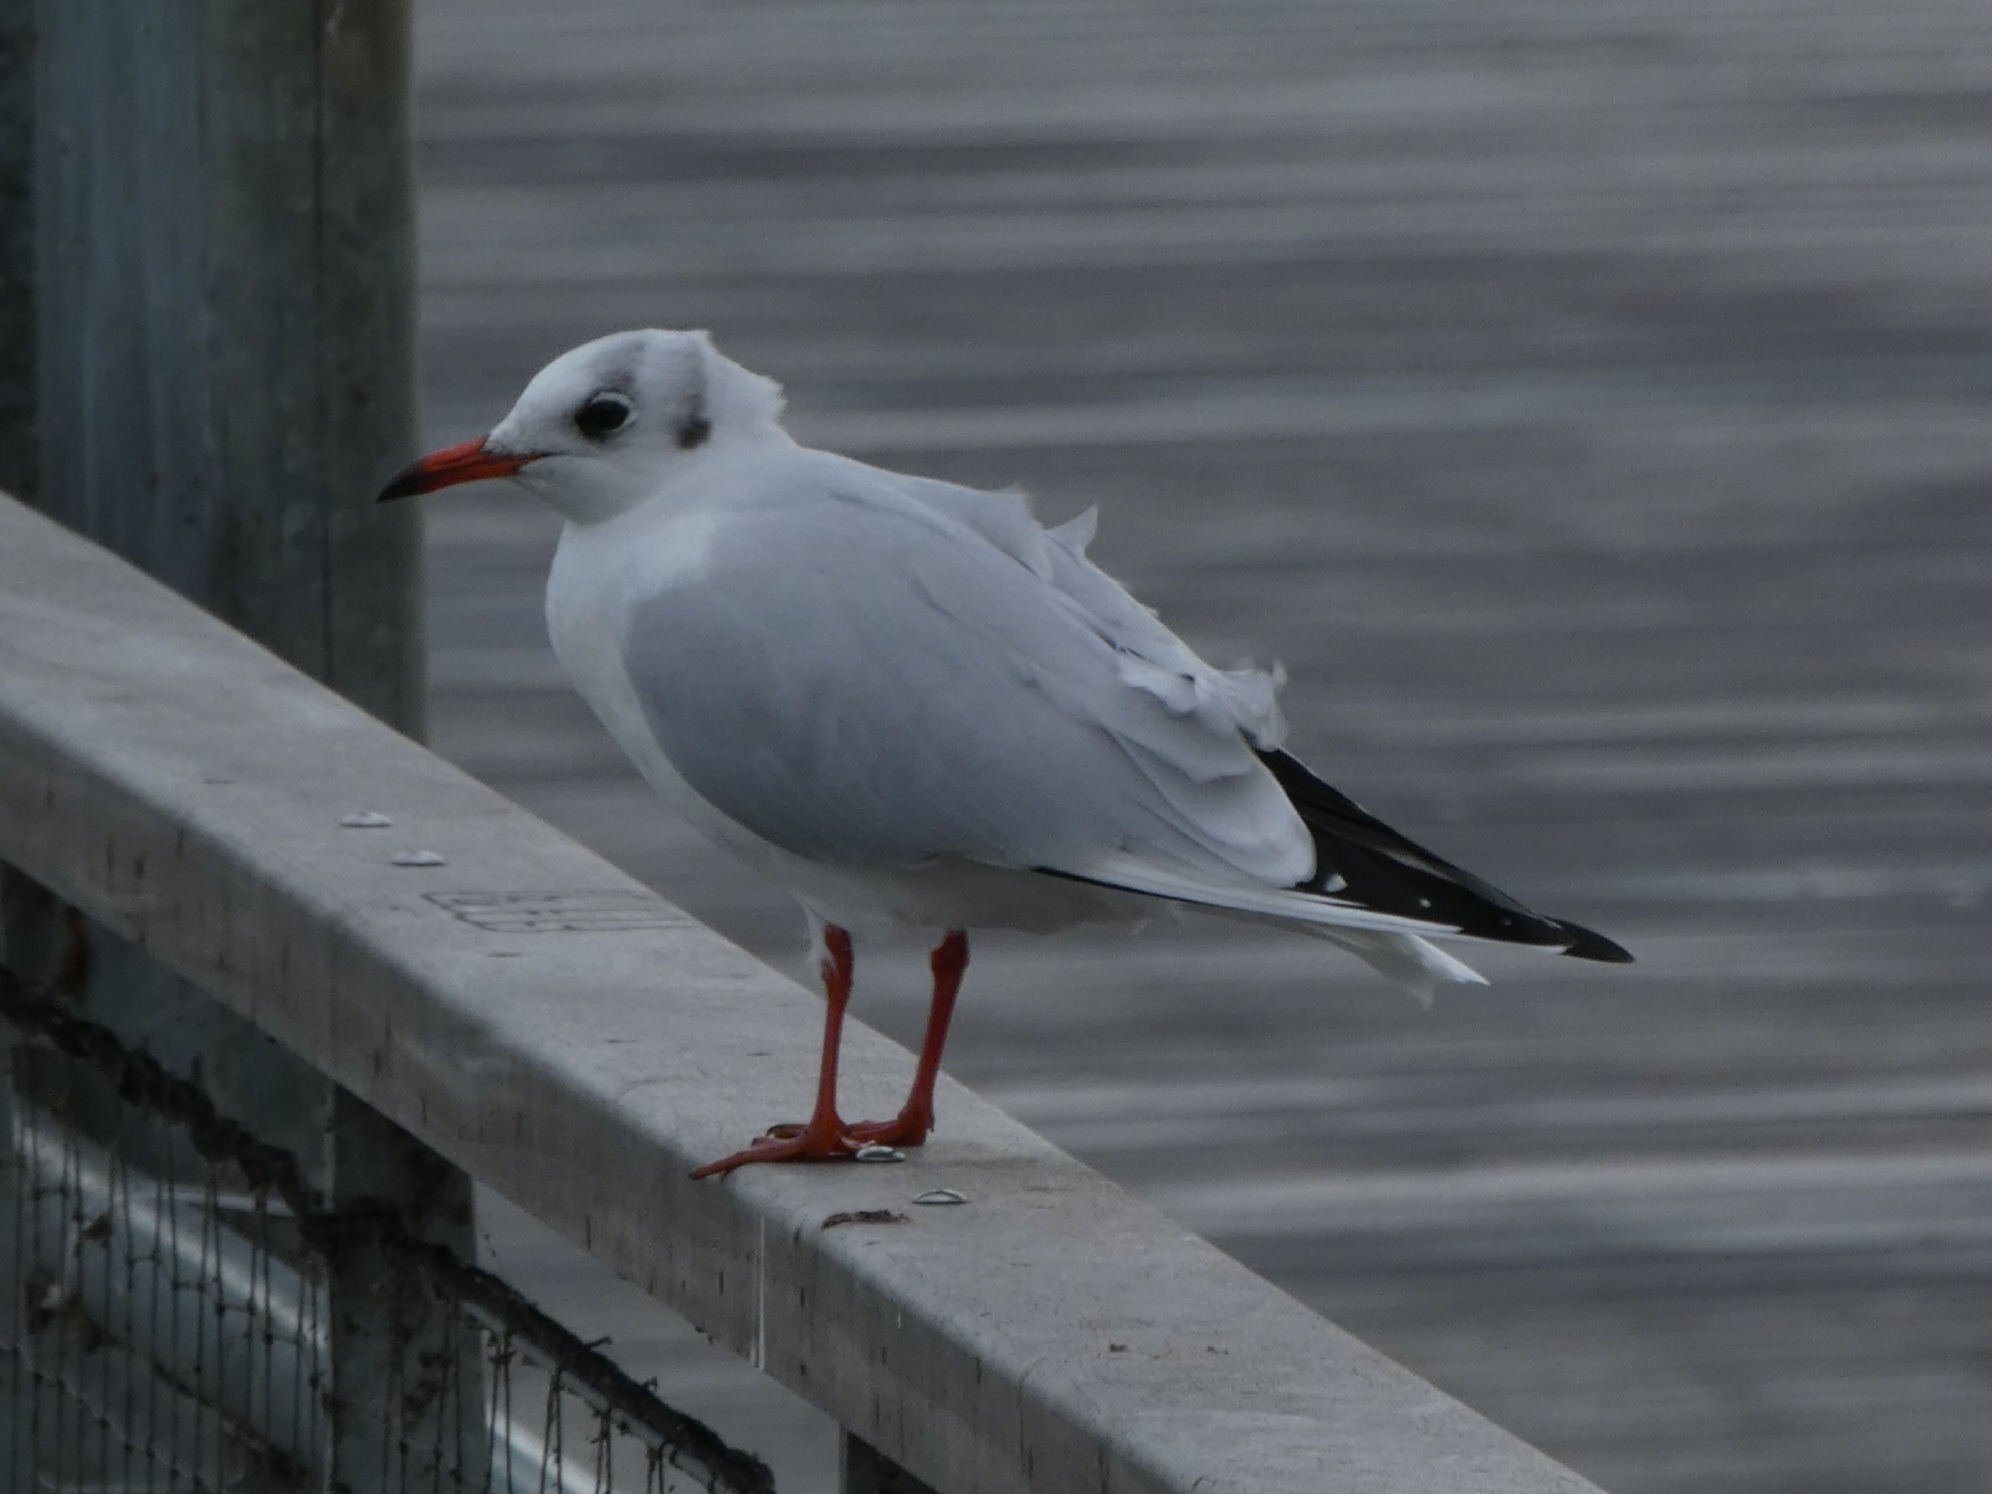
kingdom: Animalia
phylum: Chordata
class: Aves
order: Charadriiformes
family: Laridae
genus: Chroicocephalus
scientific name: Chroicocephalus ridibundus
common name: Hættemåge
